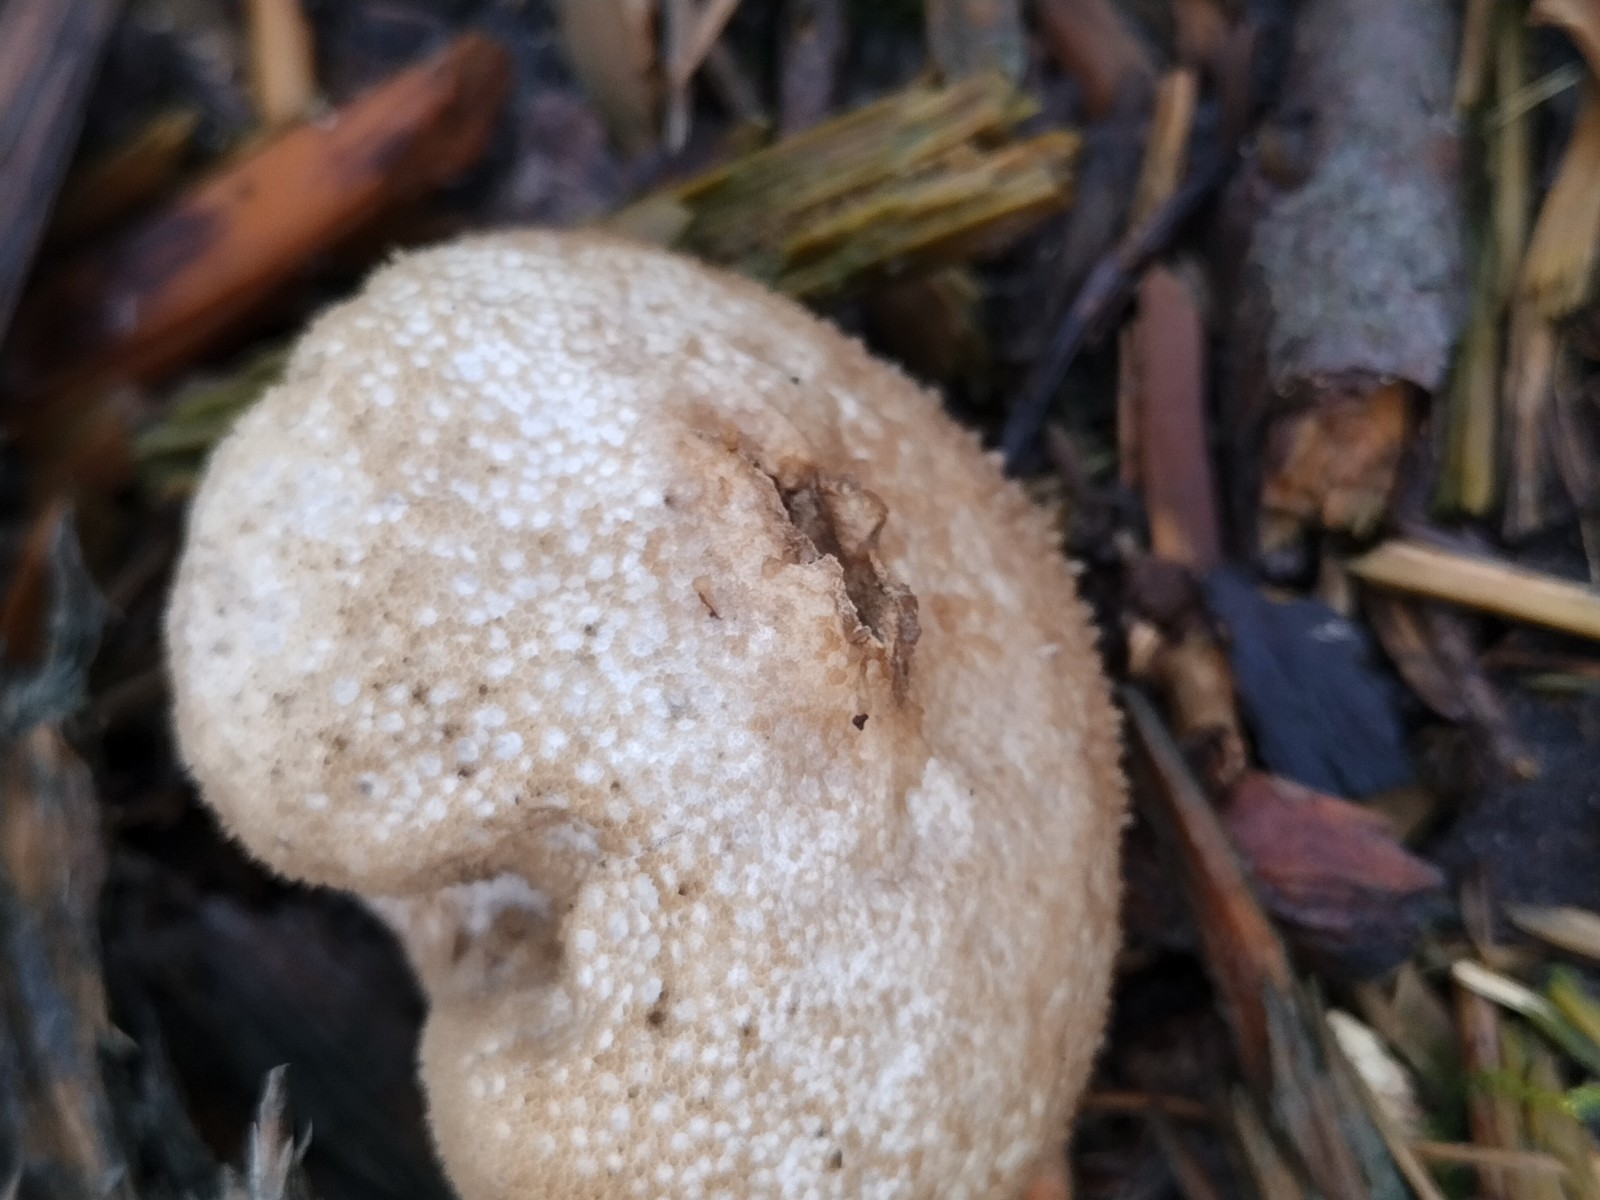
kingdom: Fungi
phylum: Basidiomycota
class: Agaricomycetes
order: Agaricales
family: Lycoperdaceae
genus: Lycoperdon
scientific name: Lycoperdon nigrescens
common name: sortagtig støvbold
